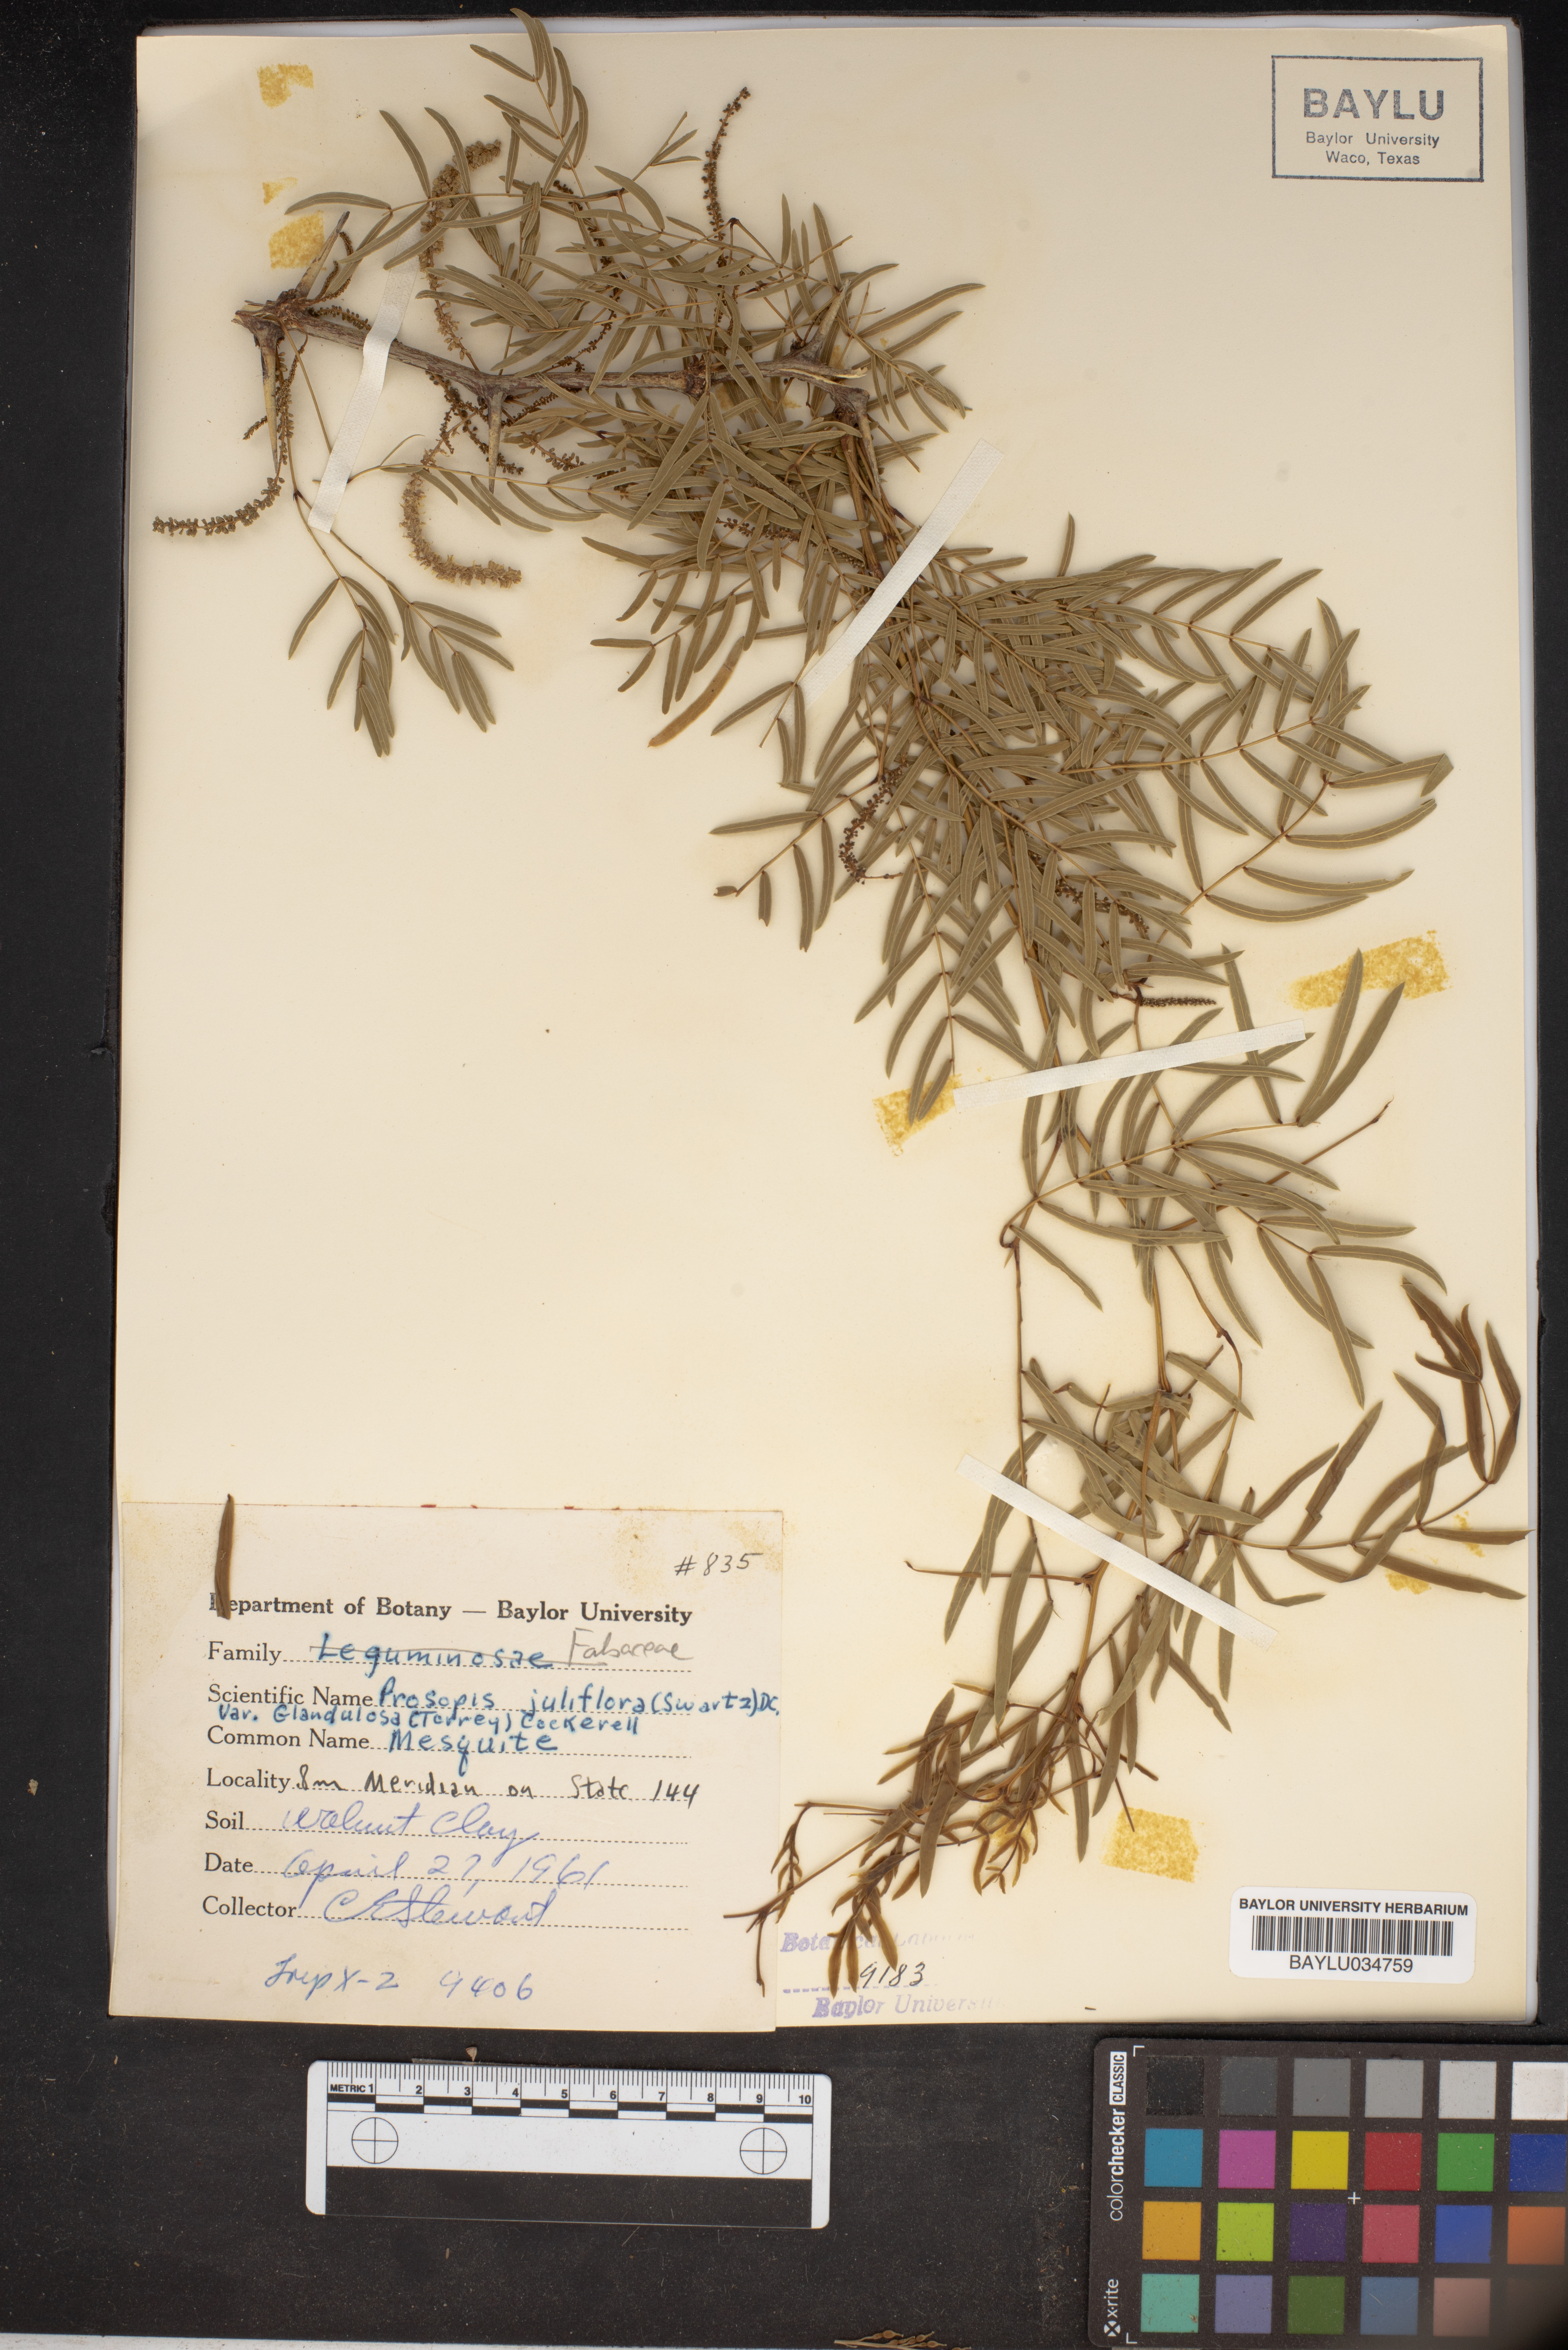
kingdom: Plantae
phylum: Tracheophyta
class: Magnoliopsida
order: Fabales
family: Fabaceae
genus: Prosopis
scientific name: Prosopis juliflora
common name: Mesquite
